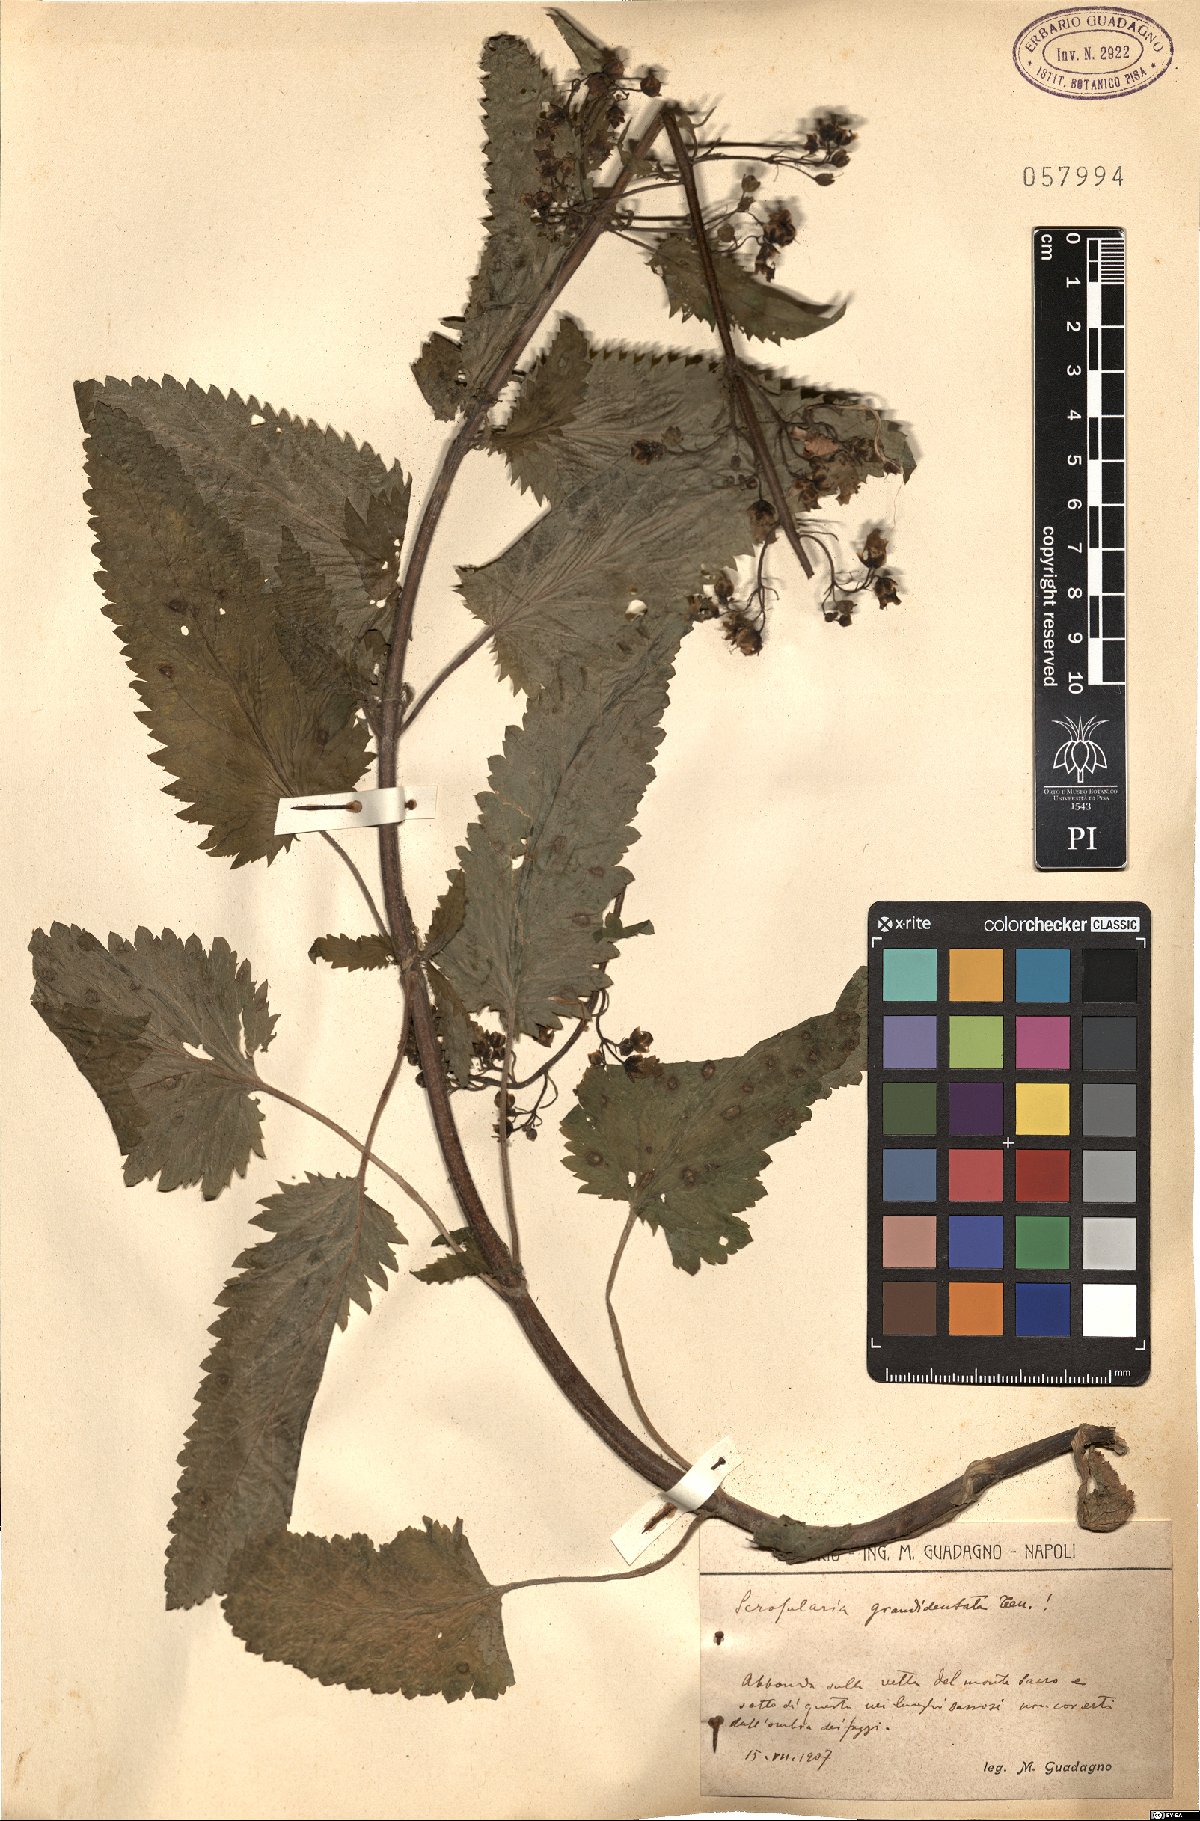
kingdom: Plantae
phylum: Tracheophyta
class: Magnoliopsida
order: Lamiales
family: Scrophulariaceae
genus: Scrophularia
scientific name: Scrophularia scopolii
